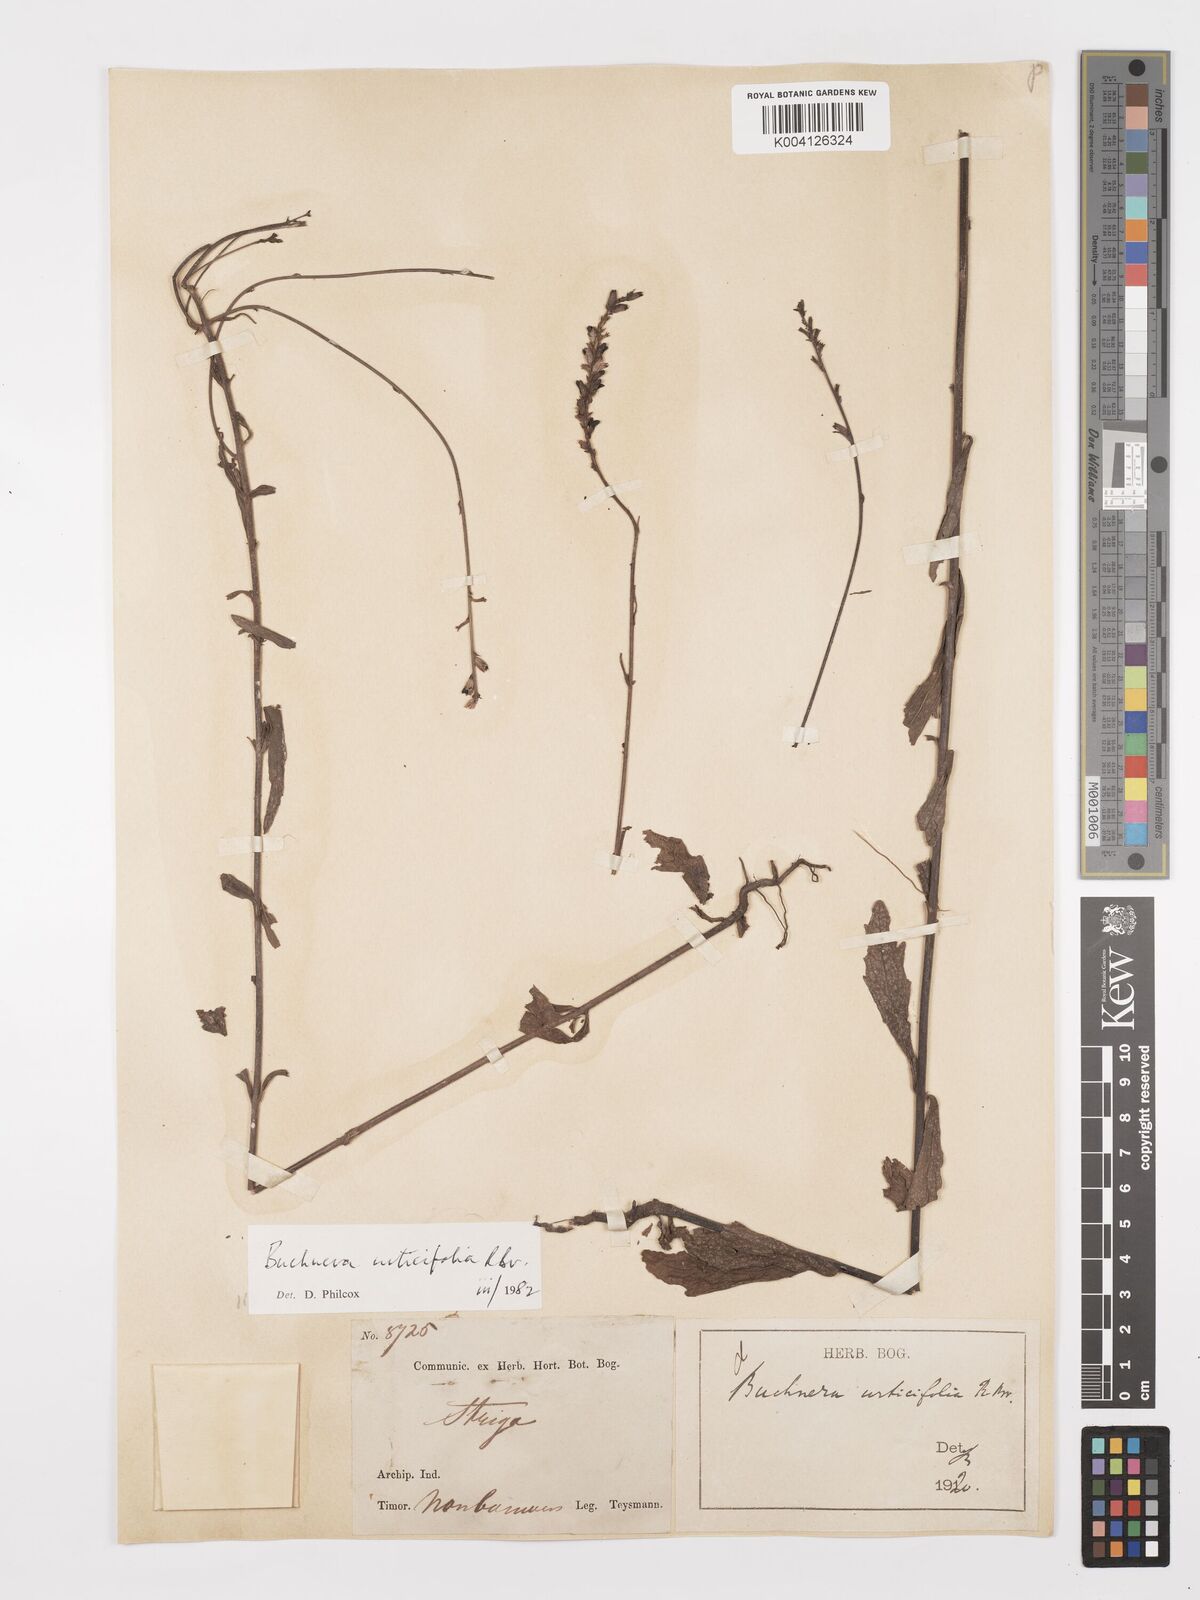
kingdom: Plantae
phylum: Tracheophyta
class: Magnoliopsida
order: Lamiales
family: Orobanchaceae
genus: Buchnera
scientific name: Buchnera urticifolia
